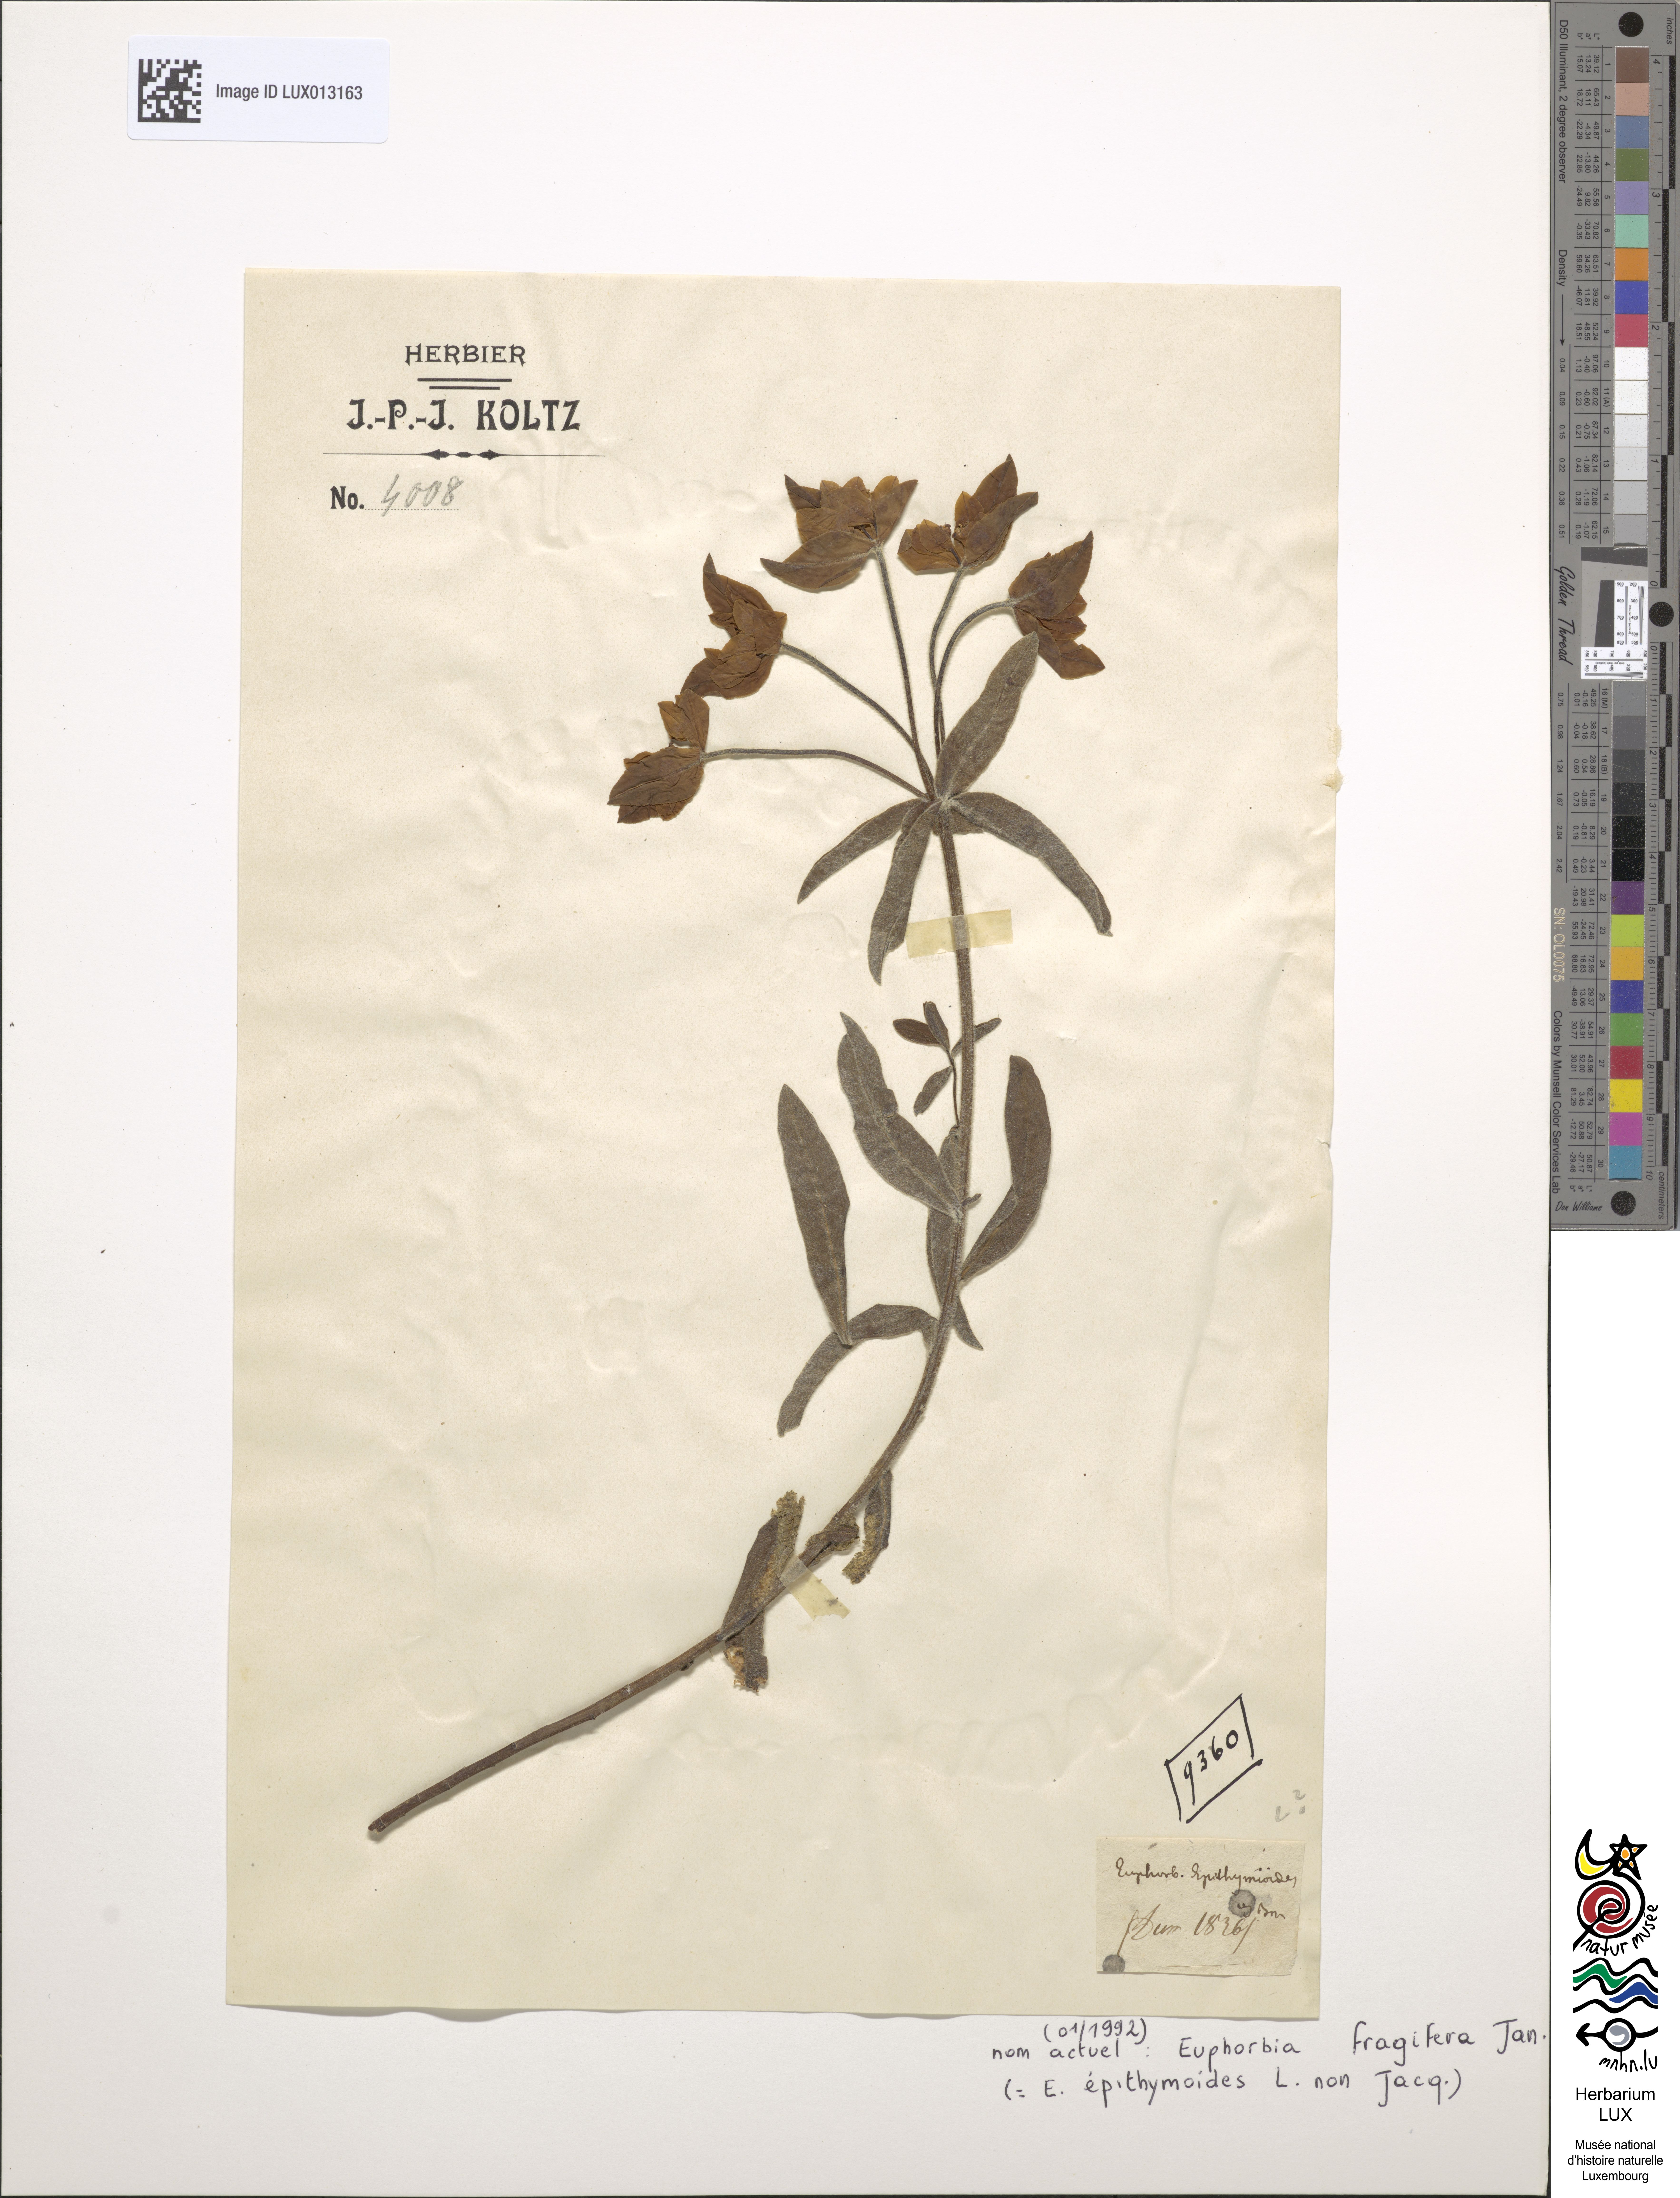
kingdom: Plantae
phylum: Tracheophyta
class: Magnoliopsida
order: Malpighiales
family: Euphorbiaceae
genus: Euphorbia
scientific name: Euphorbia fragifera
